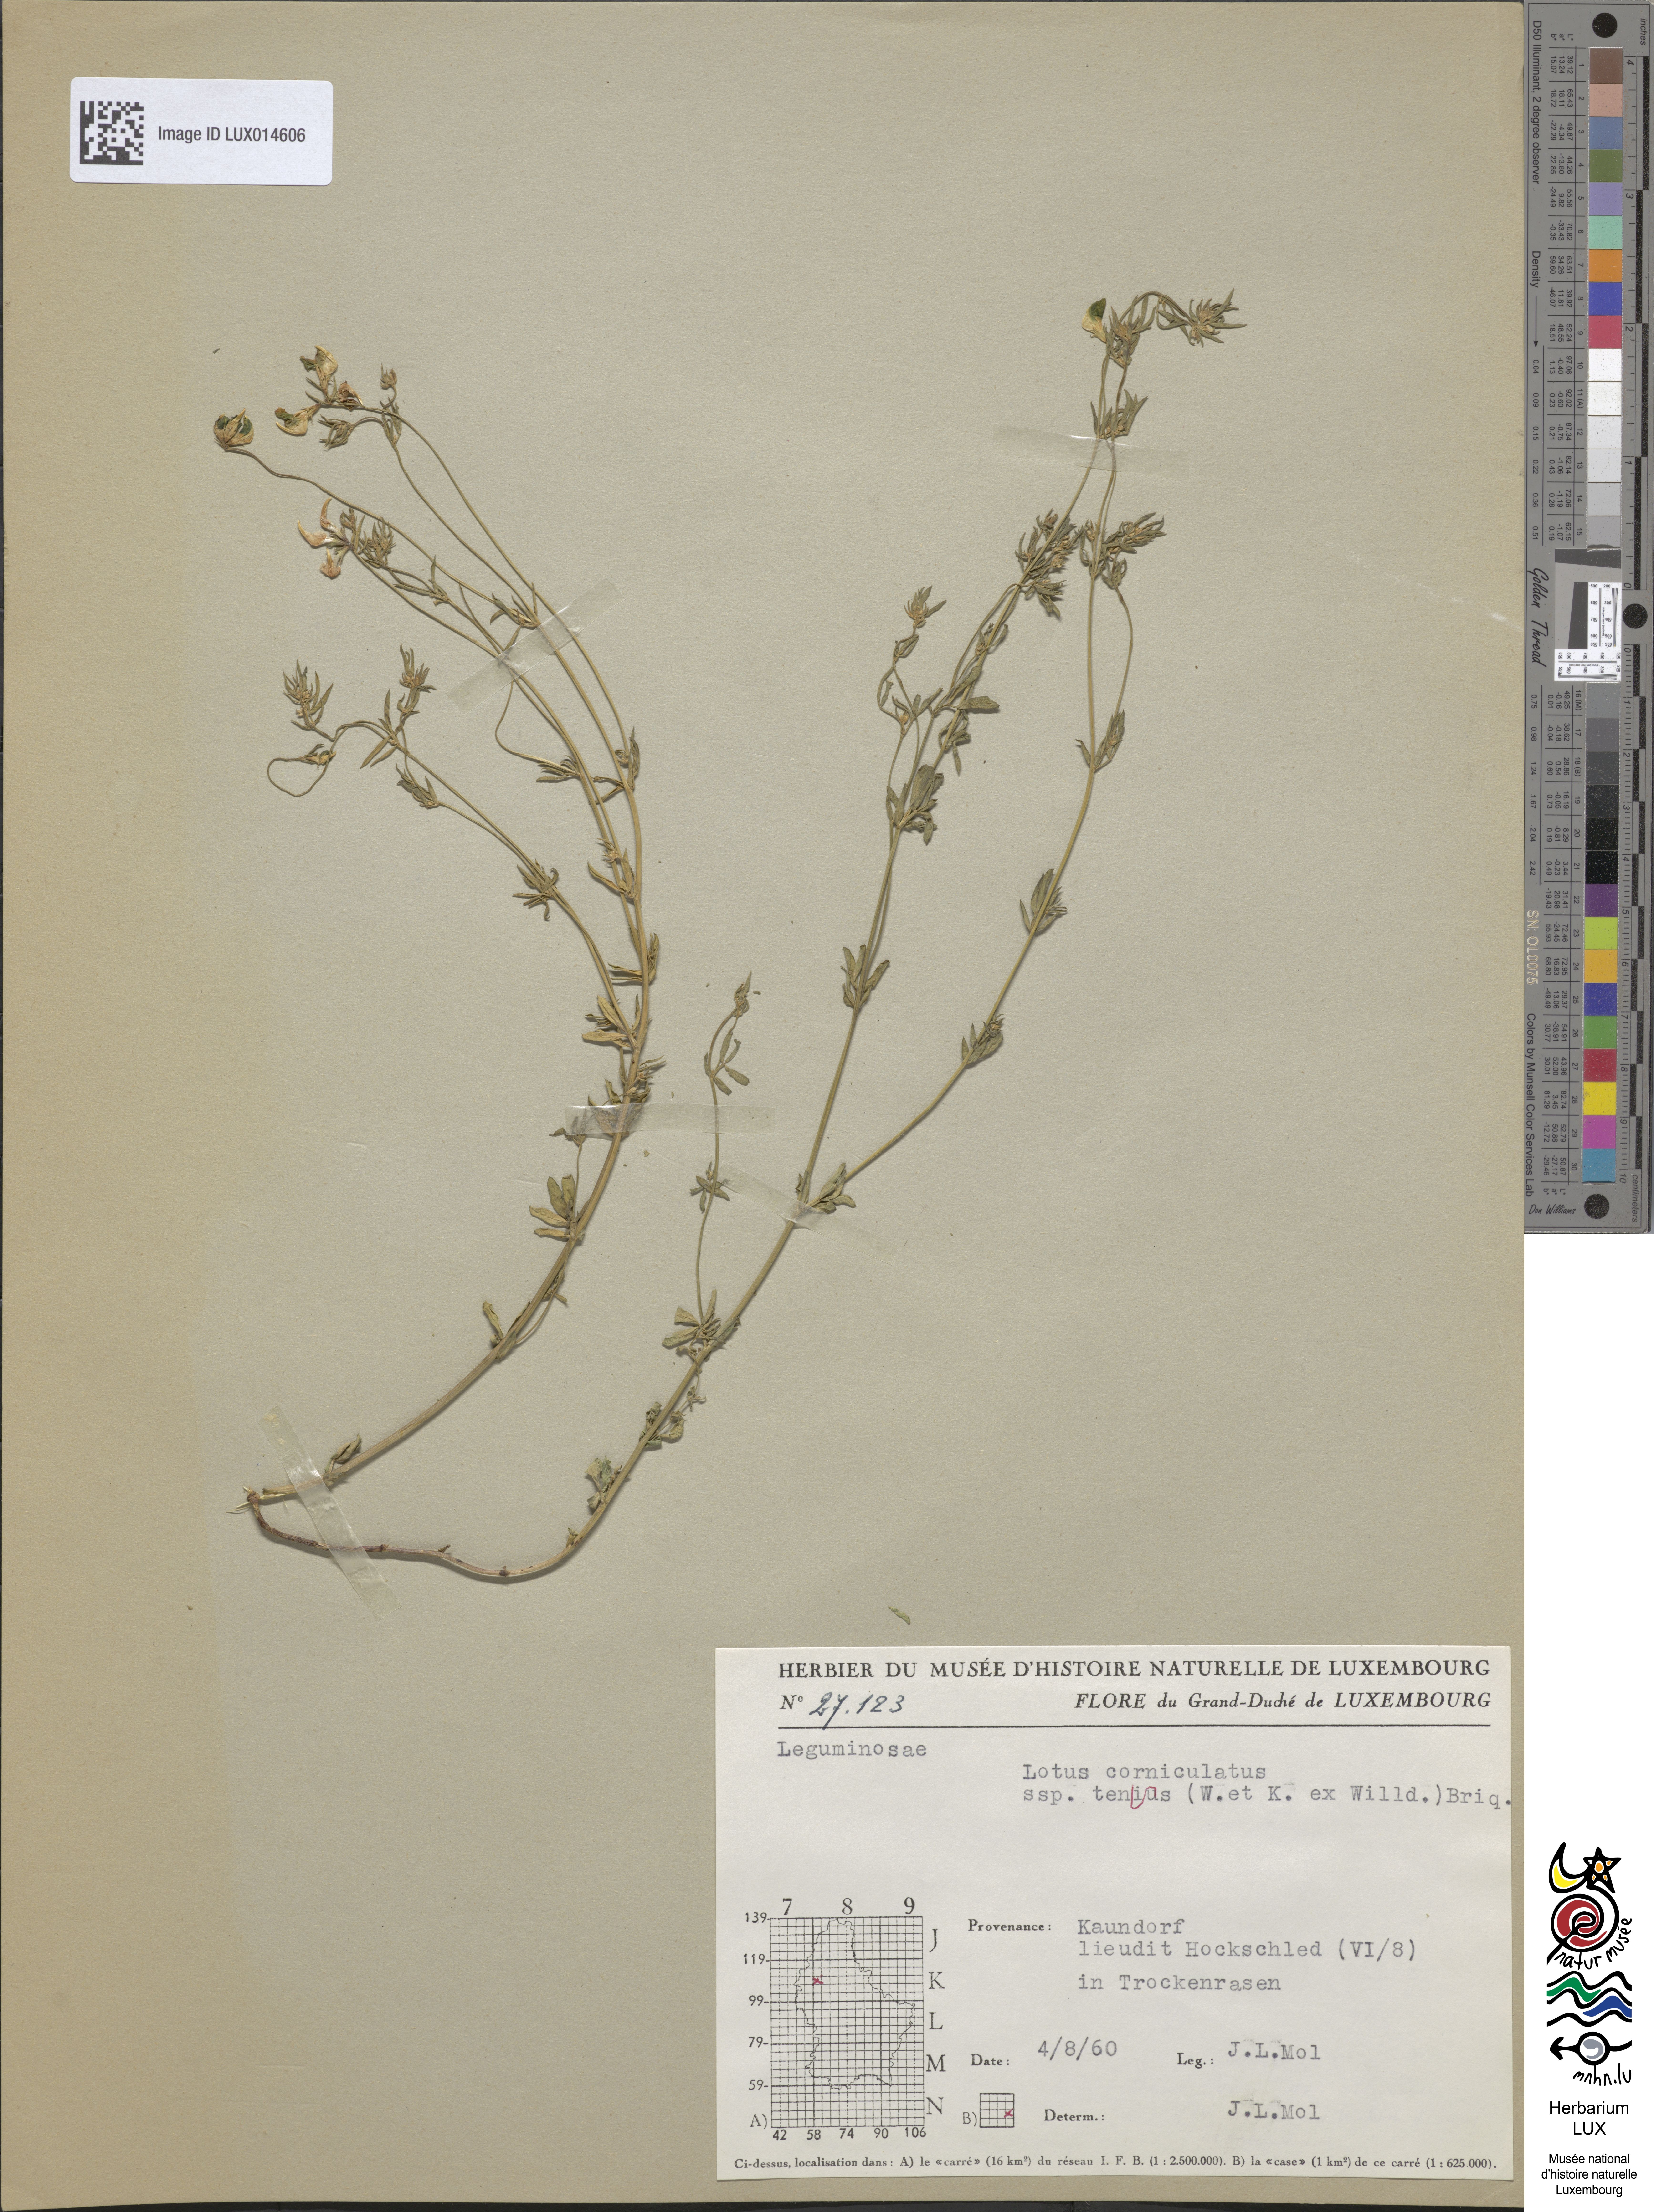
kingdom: Plantae
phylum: Tracheophyta
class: Magnoliopsida
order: Fabales
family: Fabaceae
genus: Lotus
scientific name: Lotus tenuis
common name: Narrow-leaved bird's-foot-trefoil
